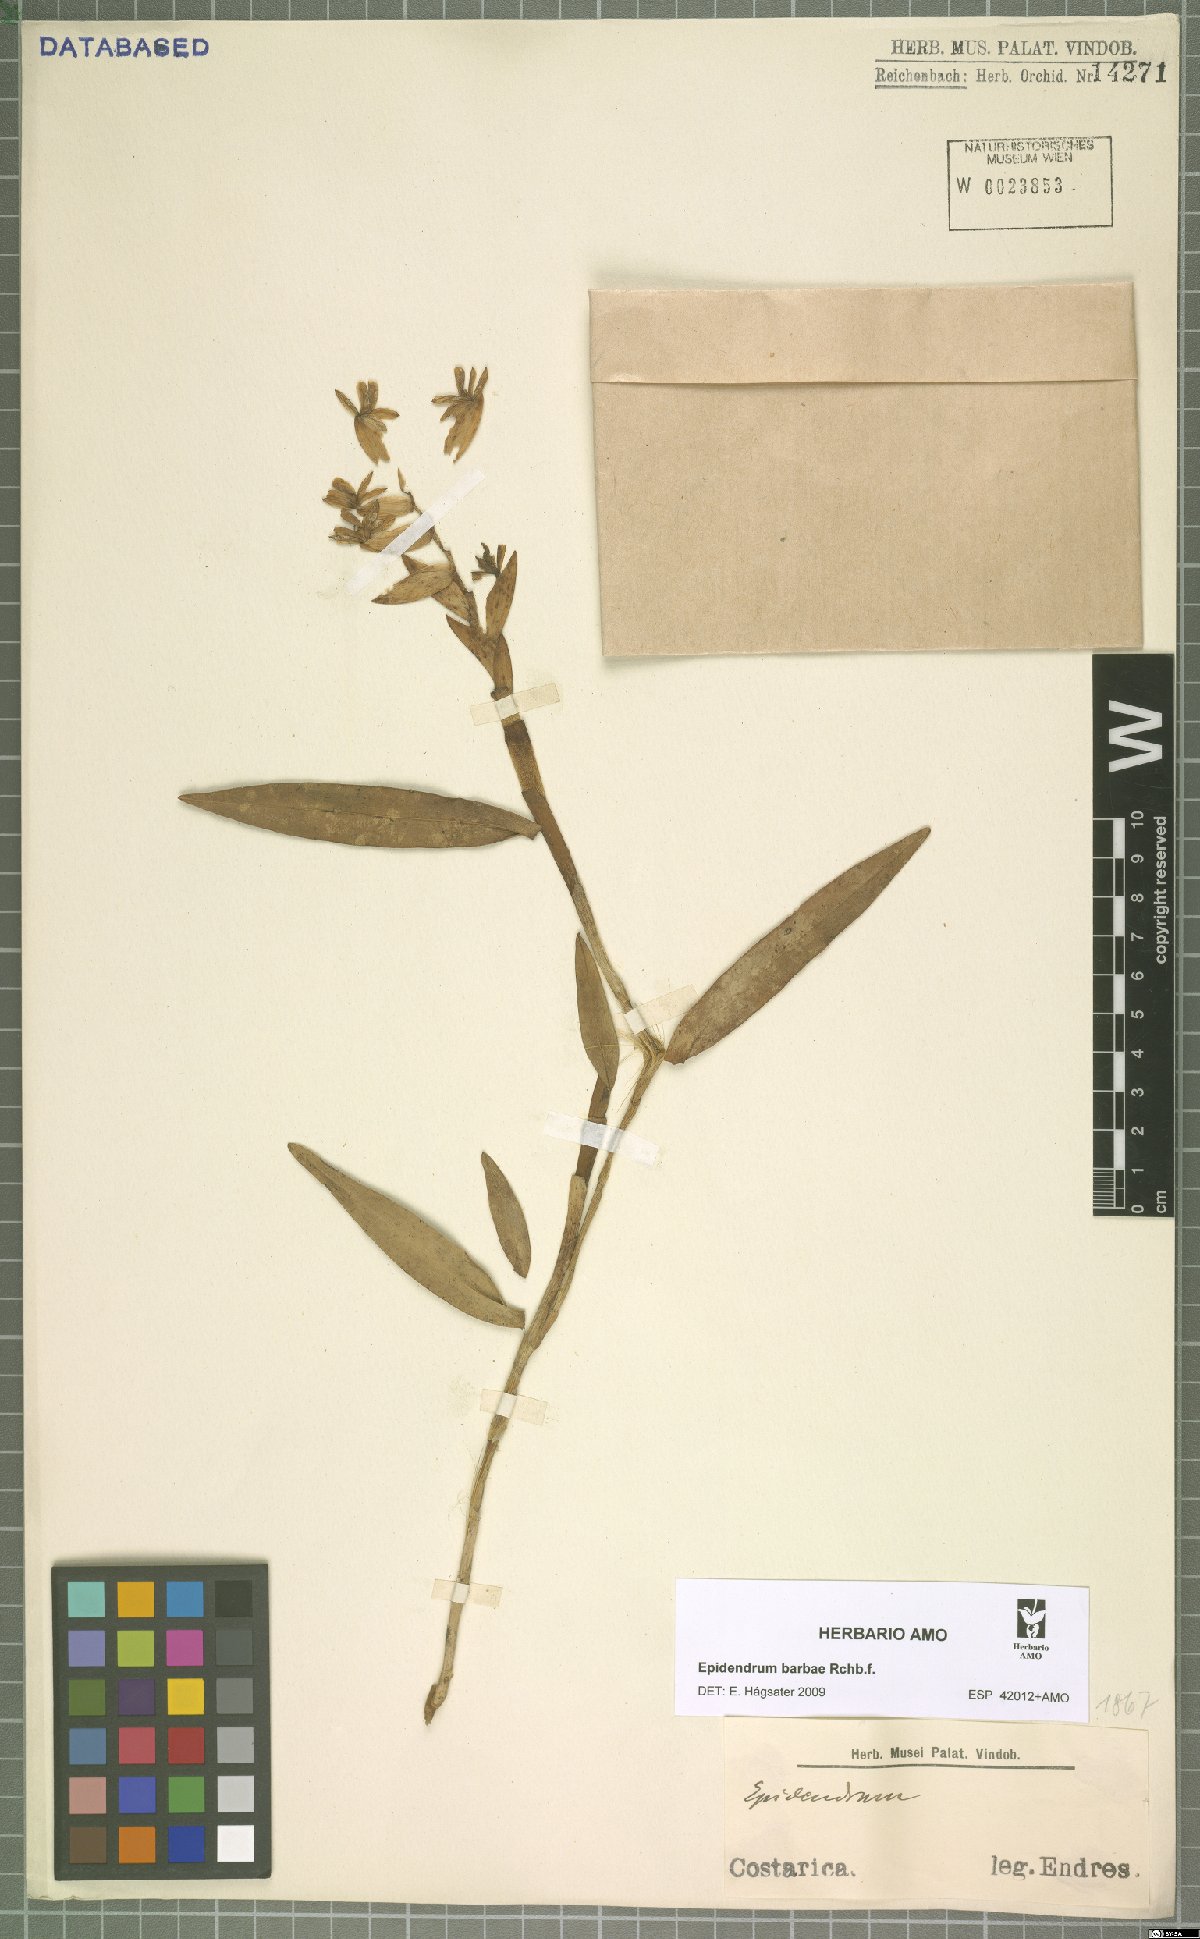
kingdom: Plantae
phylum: Tracheophyta
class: Liliopsida
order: Asparagales
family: Orchidaceae
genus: Epidendrum
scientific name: Epidendrum barbae
